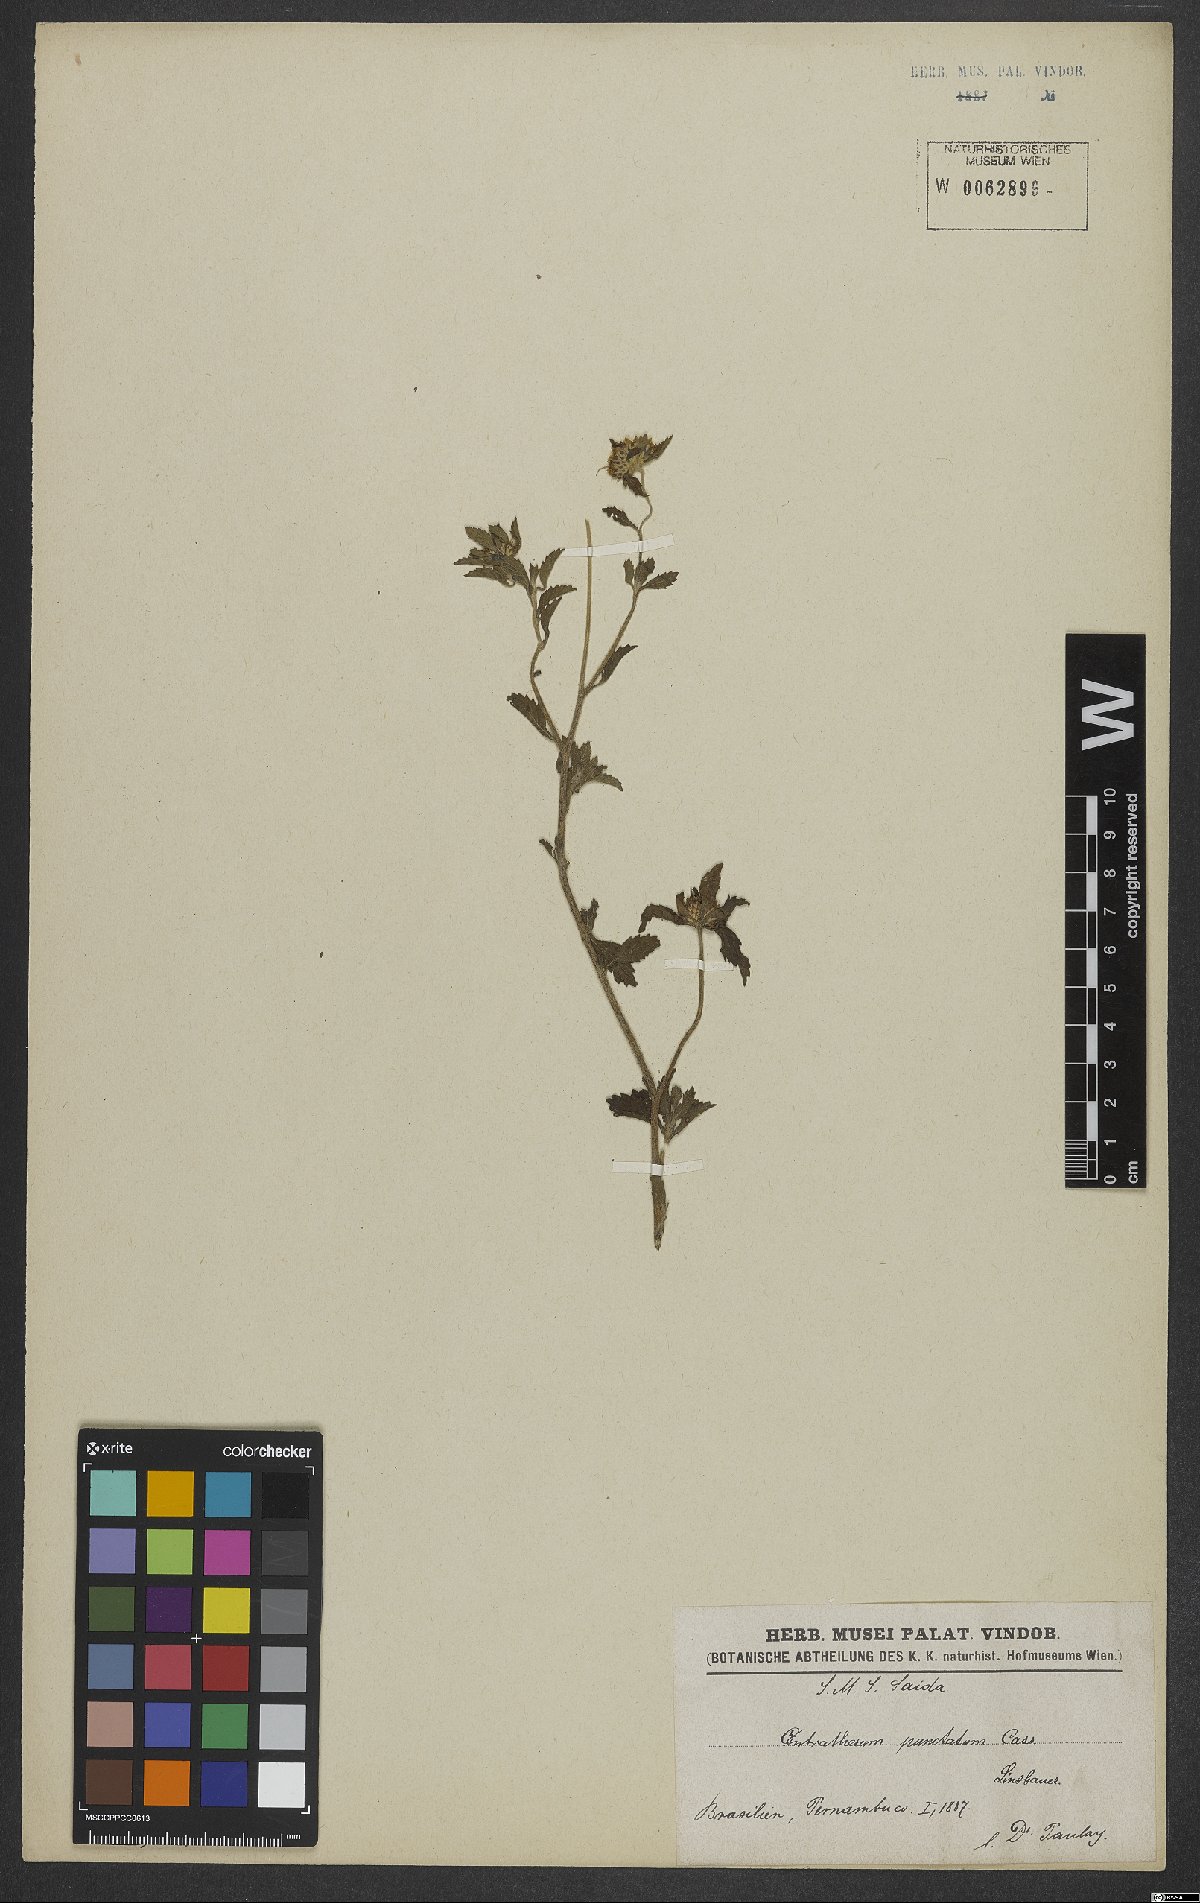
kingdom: Plantae
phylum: Tracheophyta
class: Magnoliopsida
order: Asterales
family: Asteraceae
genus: Centratherum
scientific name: Centratherum punctatum
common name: Larkdaisy
